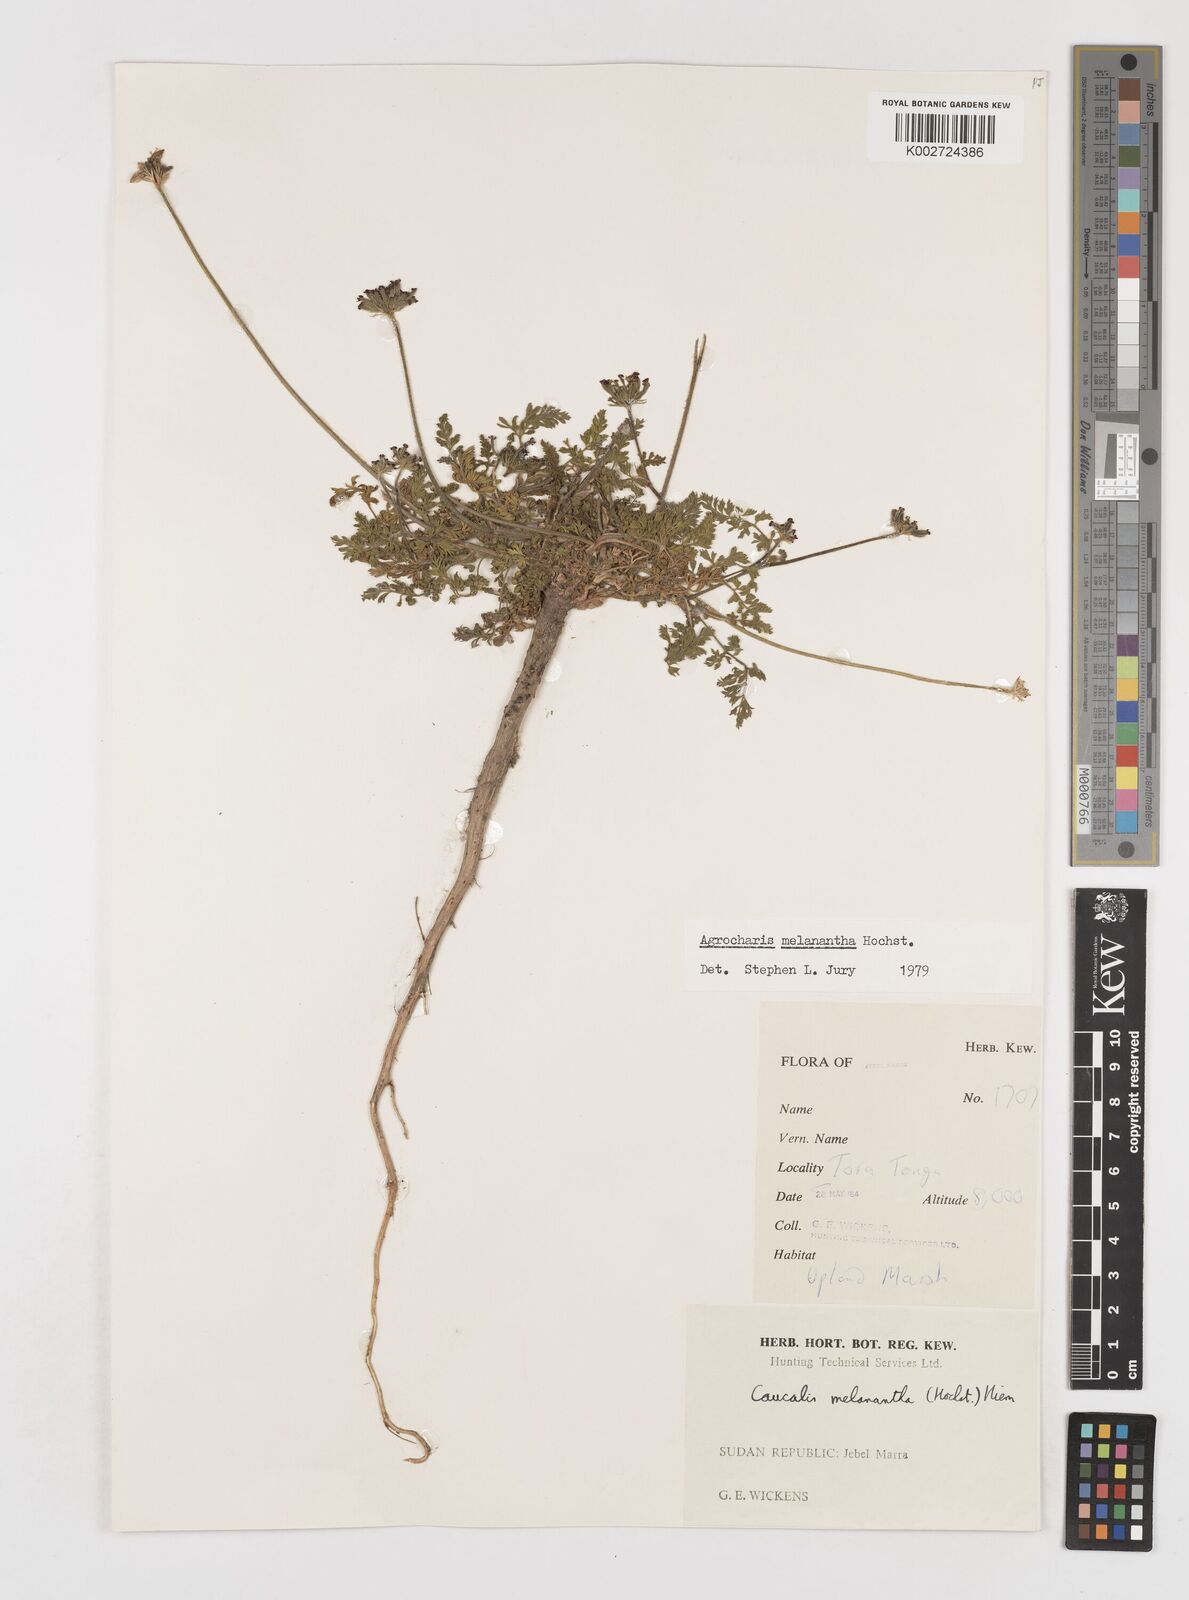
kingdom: Plantae
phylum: Tracheophyta
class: Magnoliopsida
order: Apiales
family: Apiaceae
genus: Daucus
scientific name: Daucus melananthus
